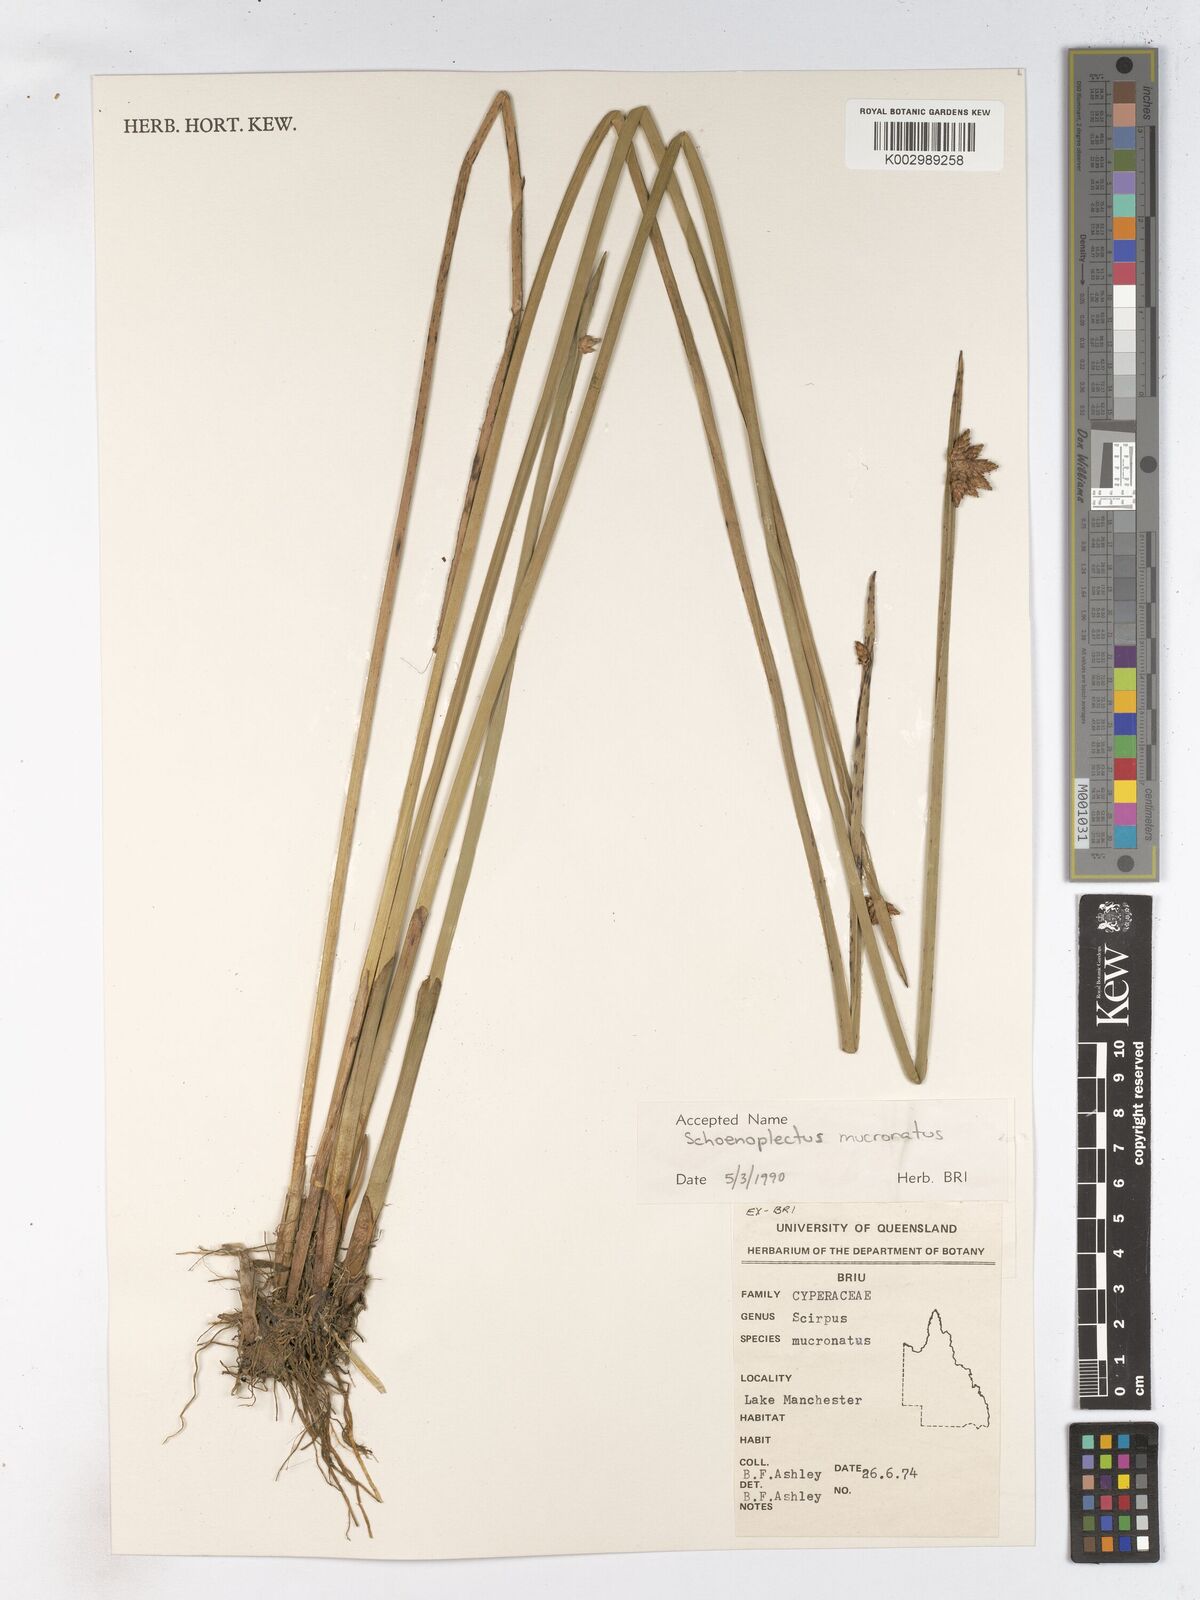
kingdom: Plantae
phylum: Tracheophyta
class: Liliopsida
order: Poales
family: Cyperaceae
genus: Schoenoplectiella
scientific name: Schoenoplectiella mucronata
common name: Bog bulrush
